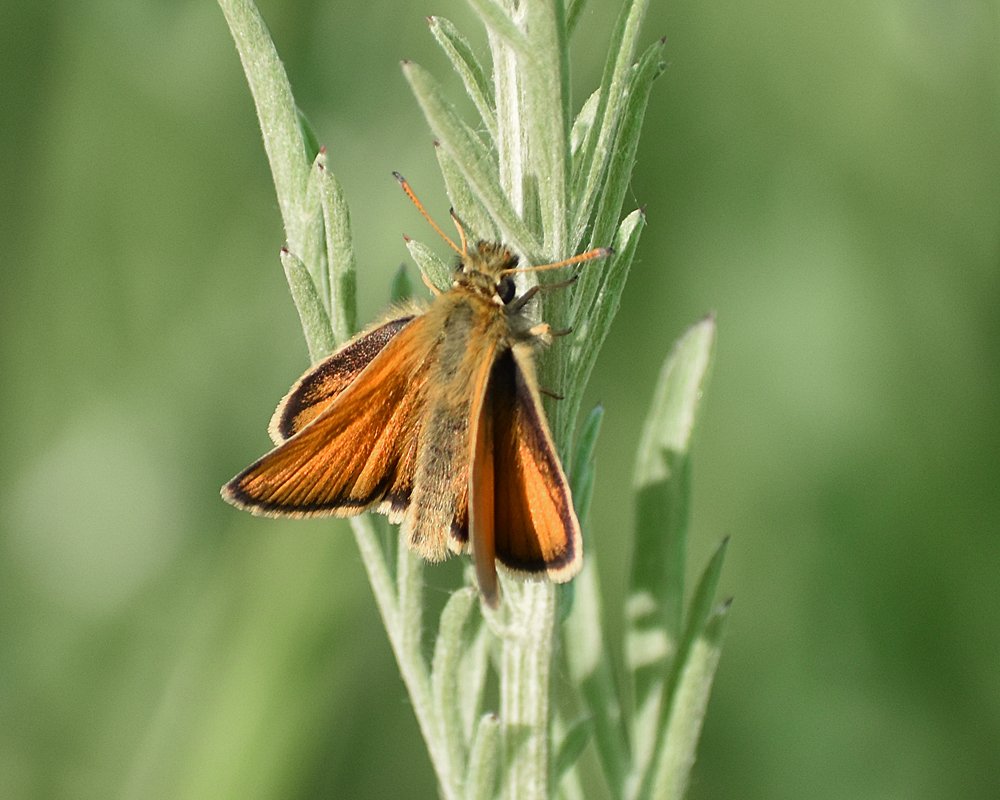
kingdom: Animalia
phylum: Arthropoda
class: Insecta
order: Lepidoptera
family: Hesperiidae
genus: Thymelicus
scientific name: Thymelicus lineola
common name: European Skipper
